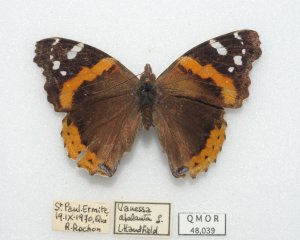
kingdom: Animalia
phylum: Arthropoda
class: Insecta
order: Lepidoptera
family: Nymphalidae
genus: Vanessa
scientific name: Vanessa atalanta
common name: Red Admiral
